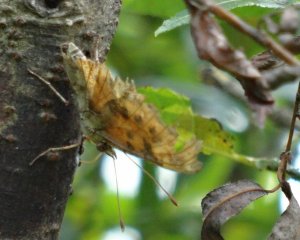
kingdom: Animalia
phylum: Arthropoda
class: Insecta
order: Lepidoptera
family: Nymphalidae
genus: Polygonia
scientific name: Polygonia comma
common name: Eastern Comma
